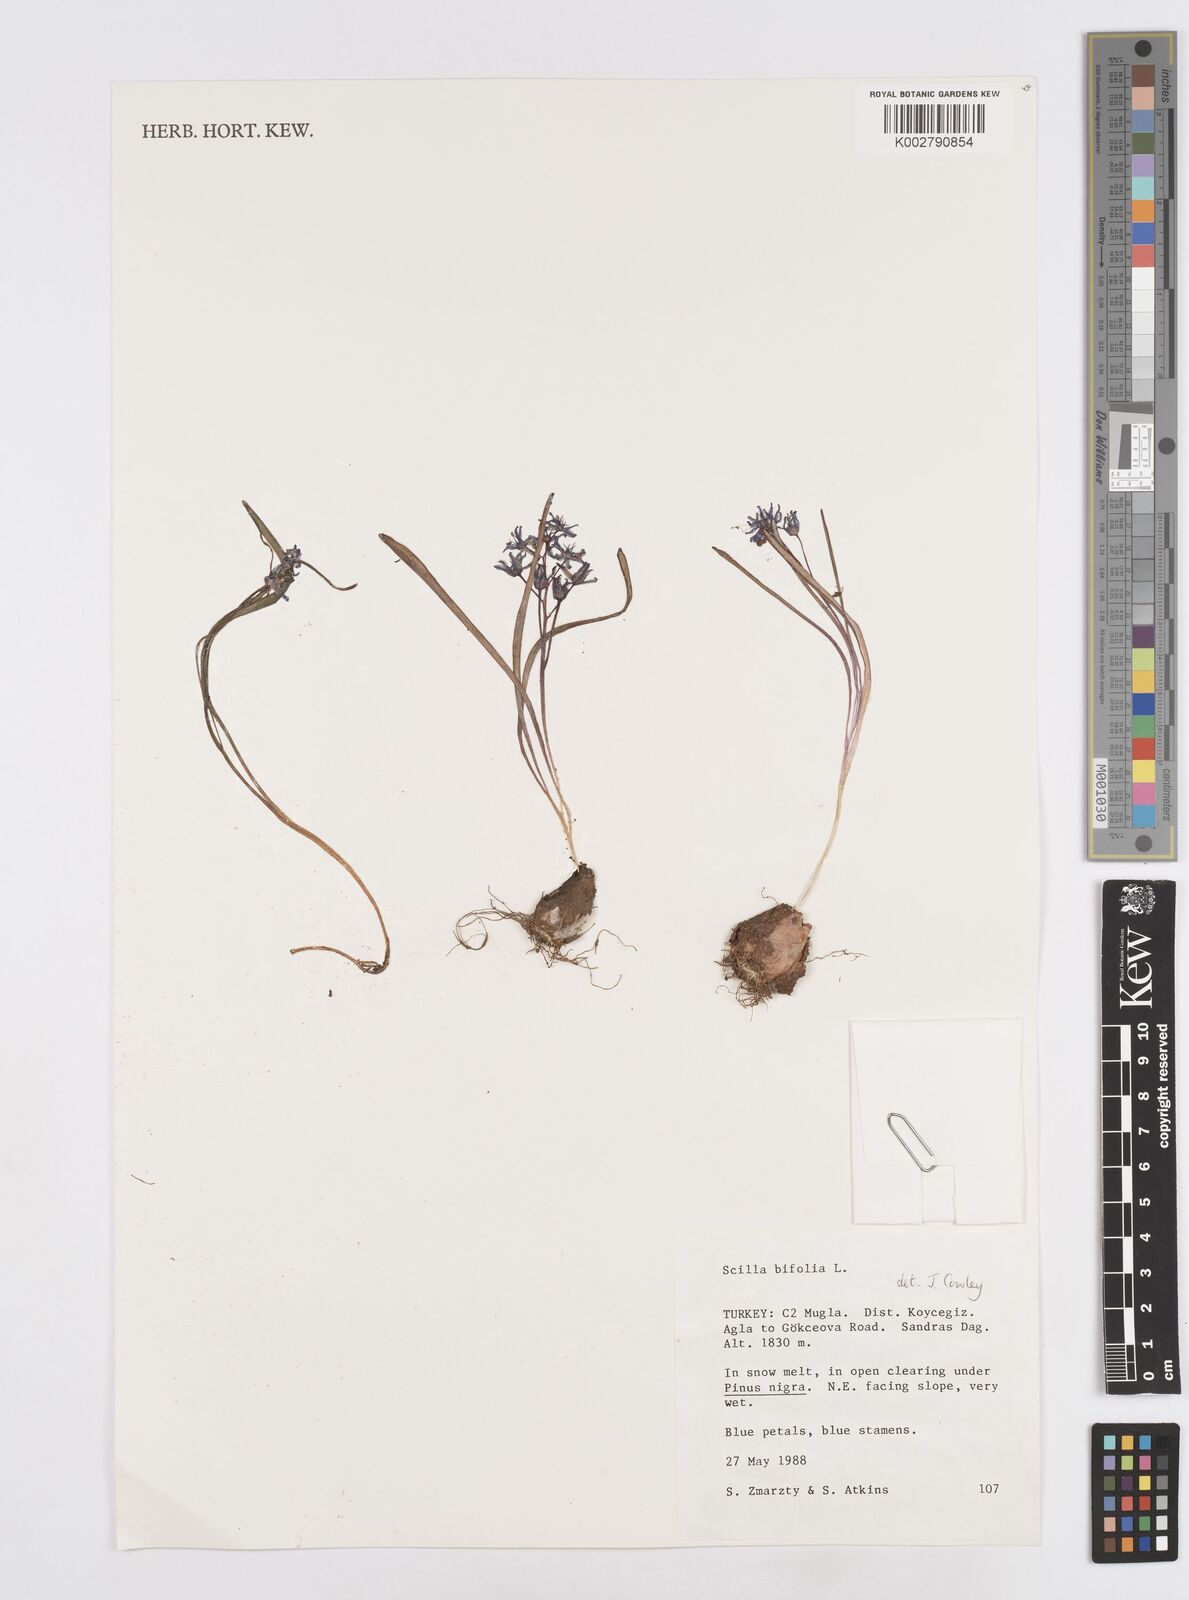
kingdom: Plantae
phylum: Tracheophyta
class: Liliopsida
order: Asparagales
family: Asparagaceae
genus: Scilla
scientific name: Scilla bifolia
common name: Alpine squill
